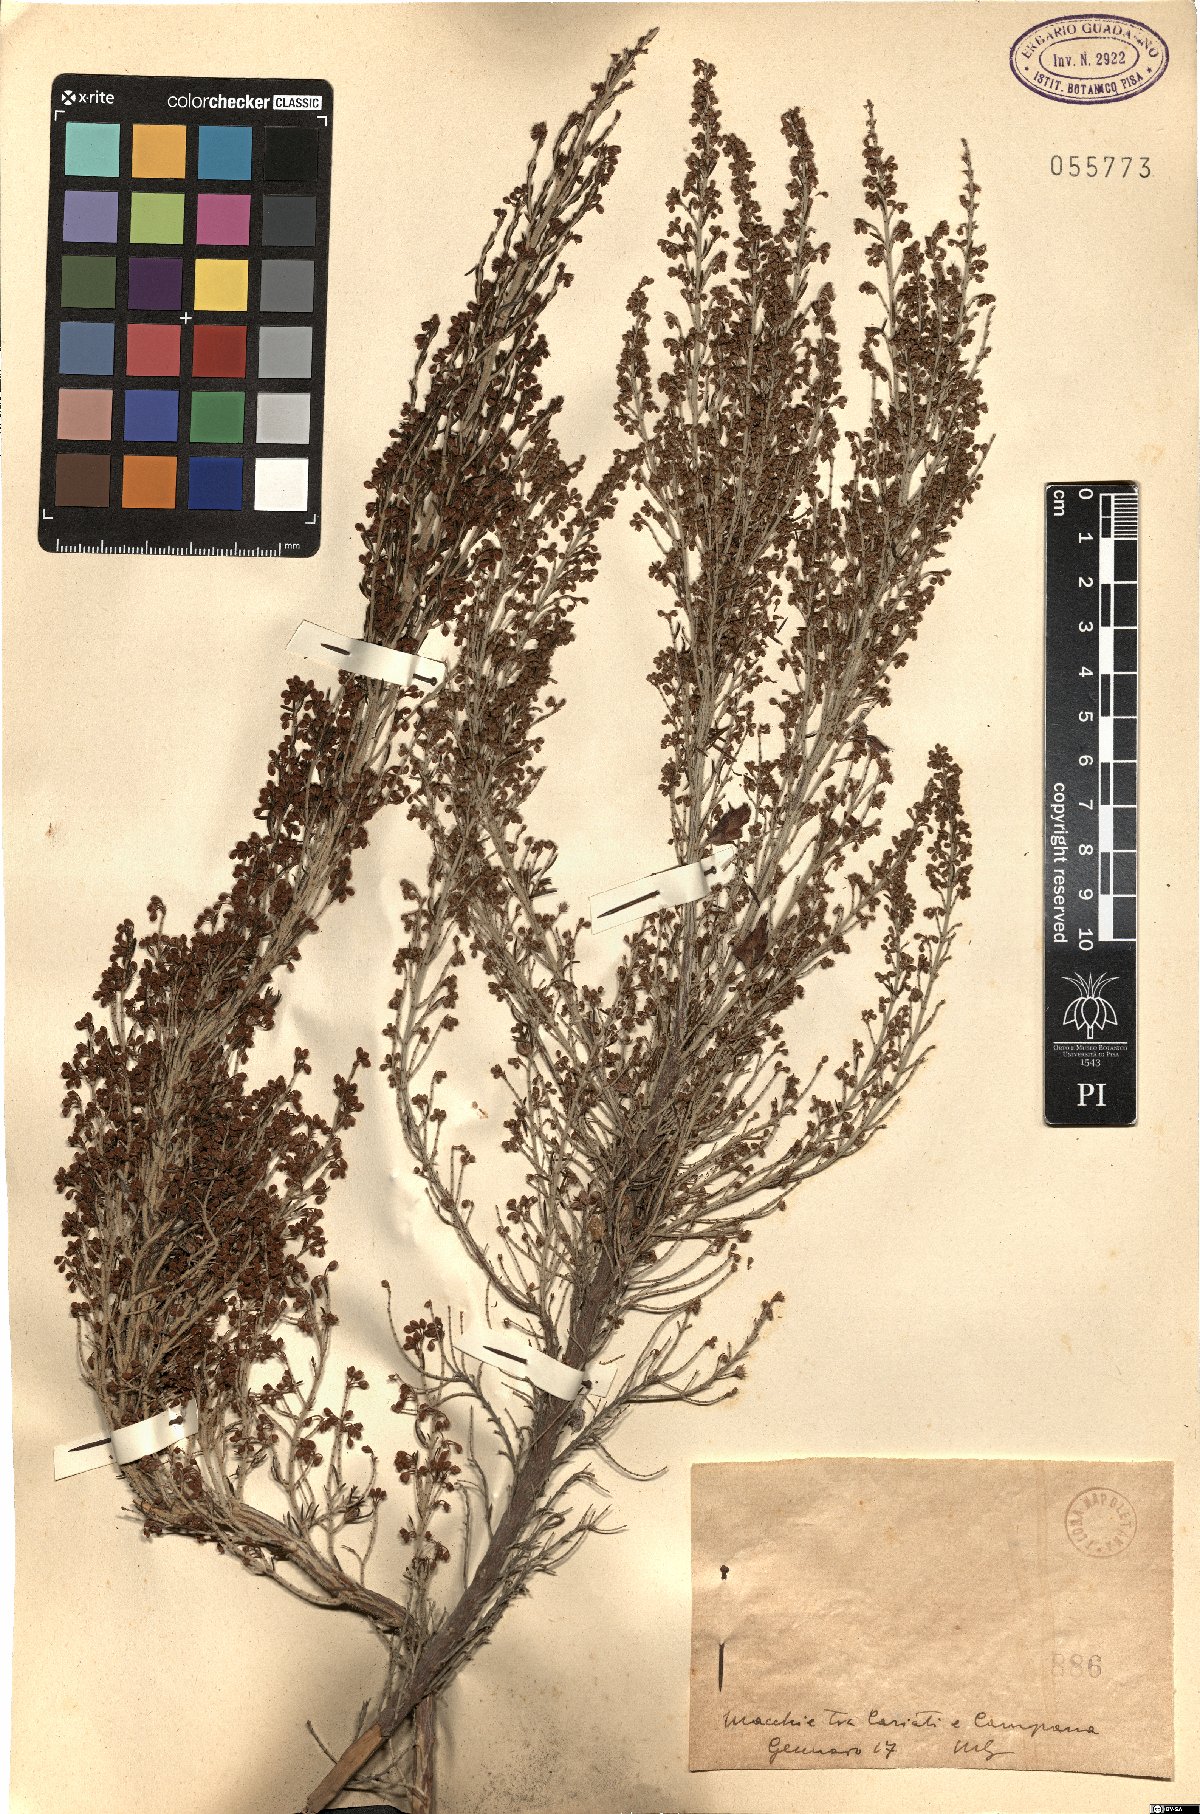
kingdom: Plantae
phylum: Tracheophyta
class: Magnoliopsida
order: Ericales
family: Ericaceae
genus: Erica
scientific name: Erica
